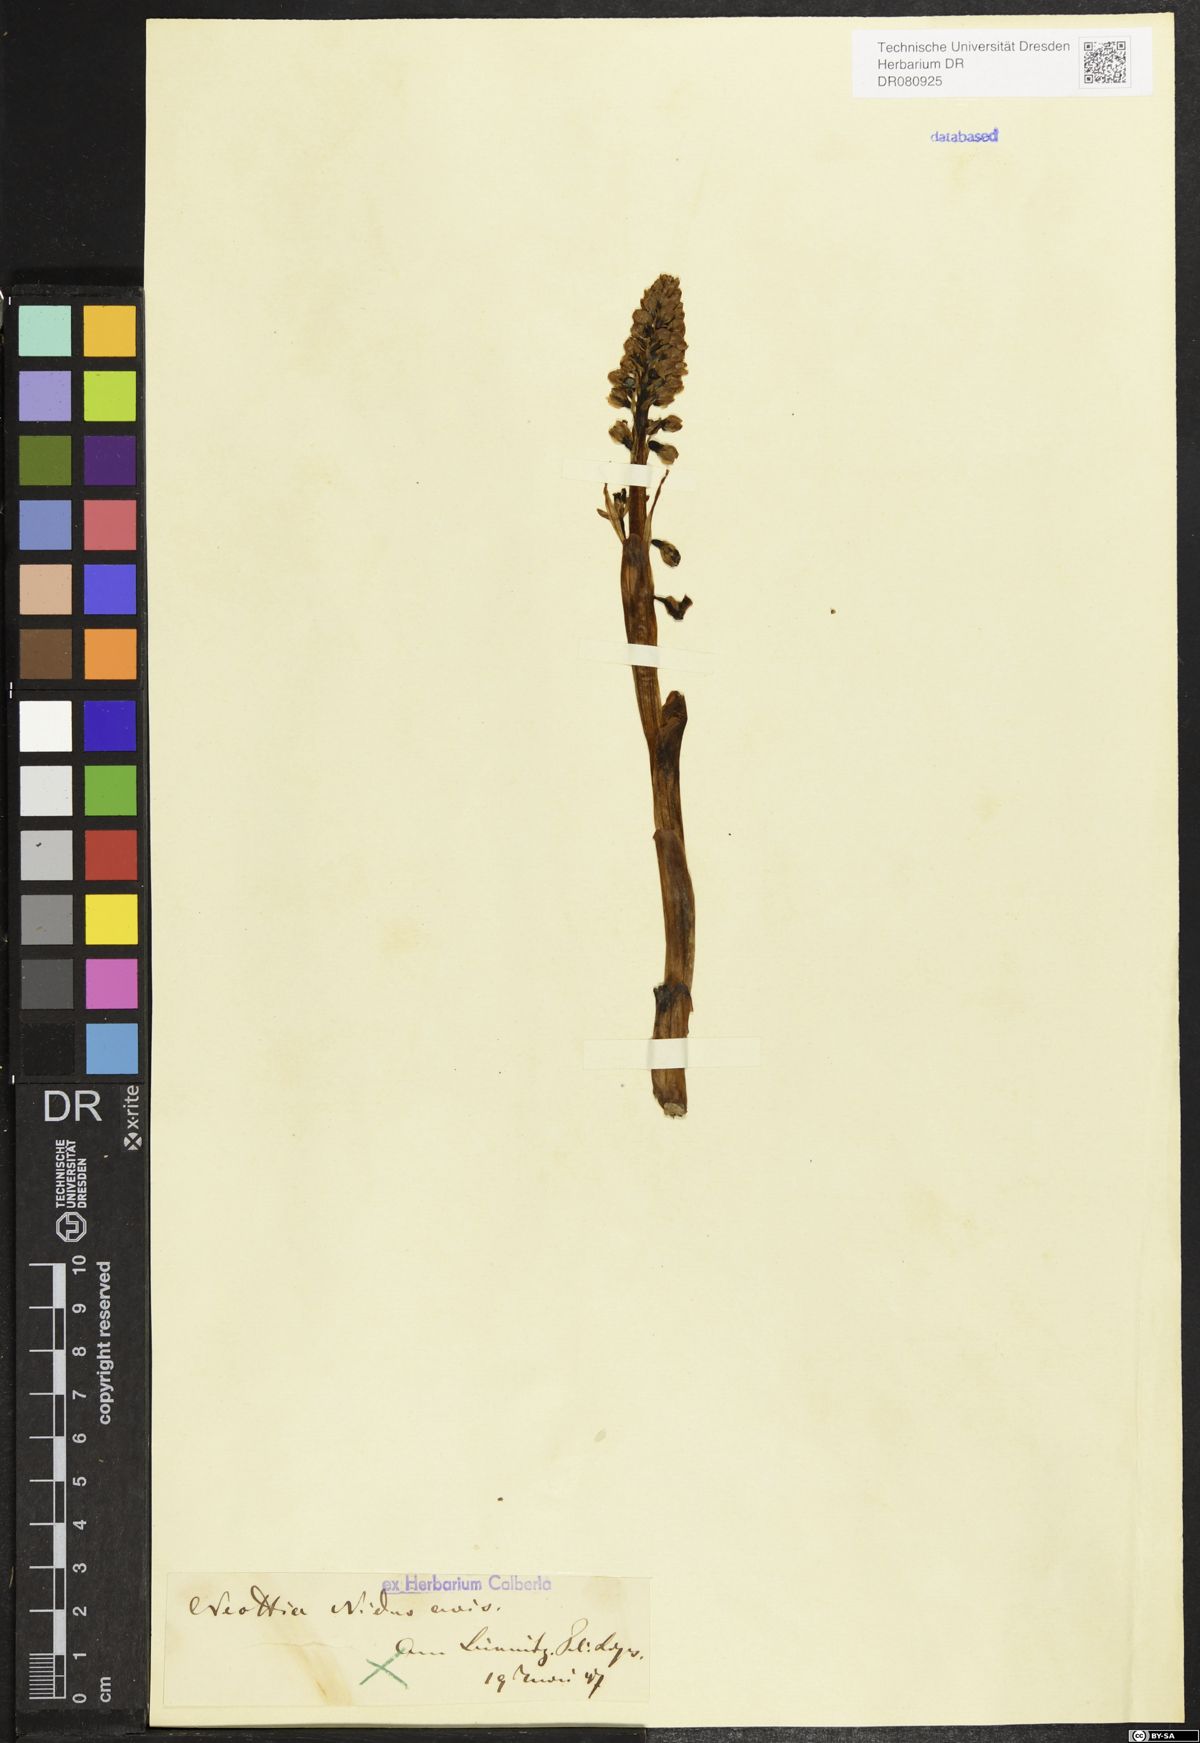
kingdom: Plantae
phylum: Tracheophyta
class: Liliopsida
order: Asparagales
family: Orchidaceae
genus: Neottia
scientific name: Neottia nidus-avis
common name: Bird's-nest orchid
